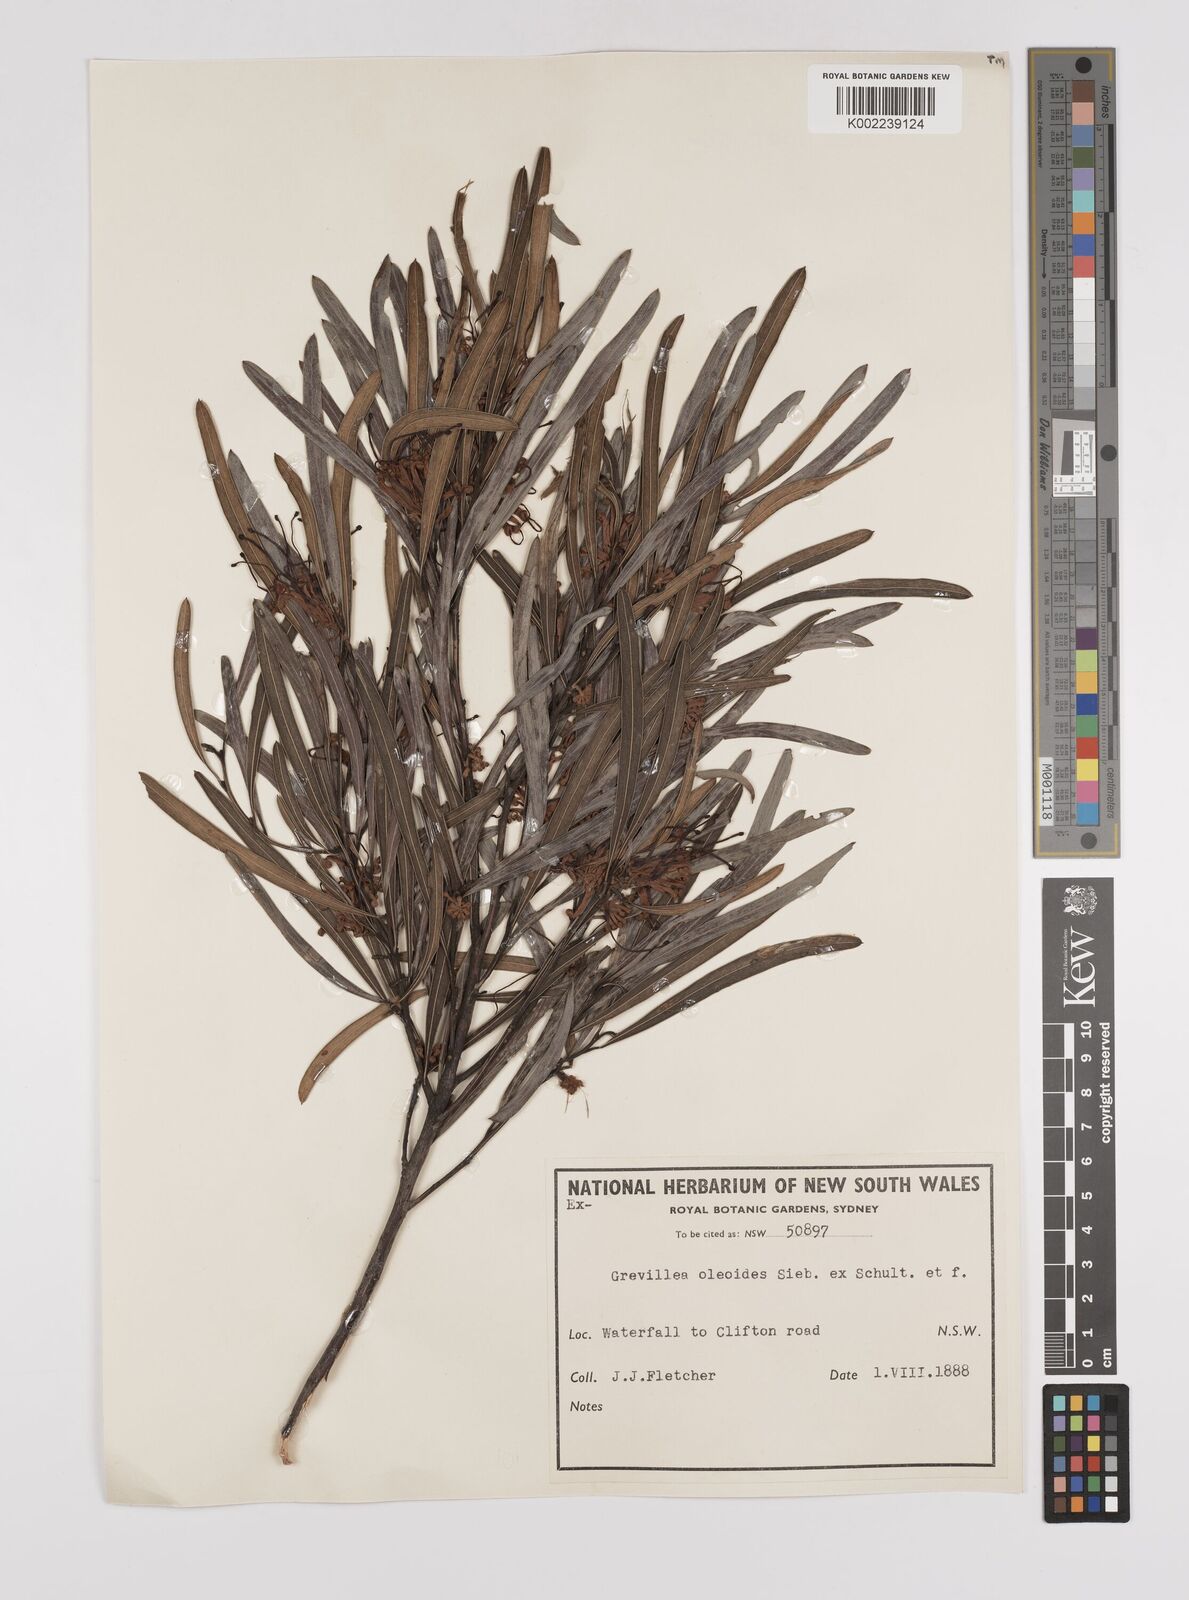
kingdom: Plantae
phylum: Tracheophyta
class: Magnoliopsida
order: Proteales
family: Proteaceae
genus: Grevillea
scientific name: Grevillea oleoides
